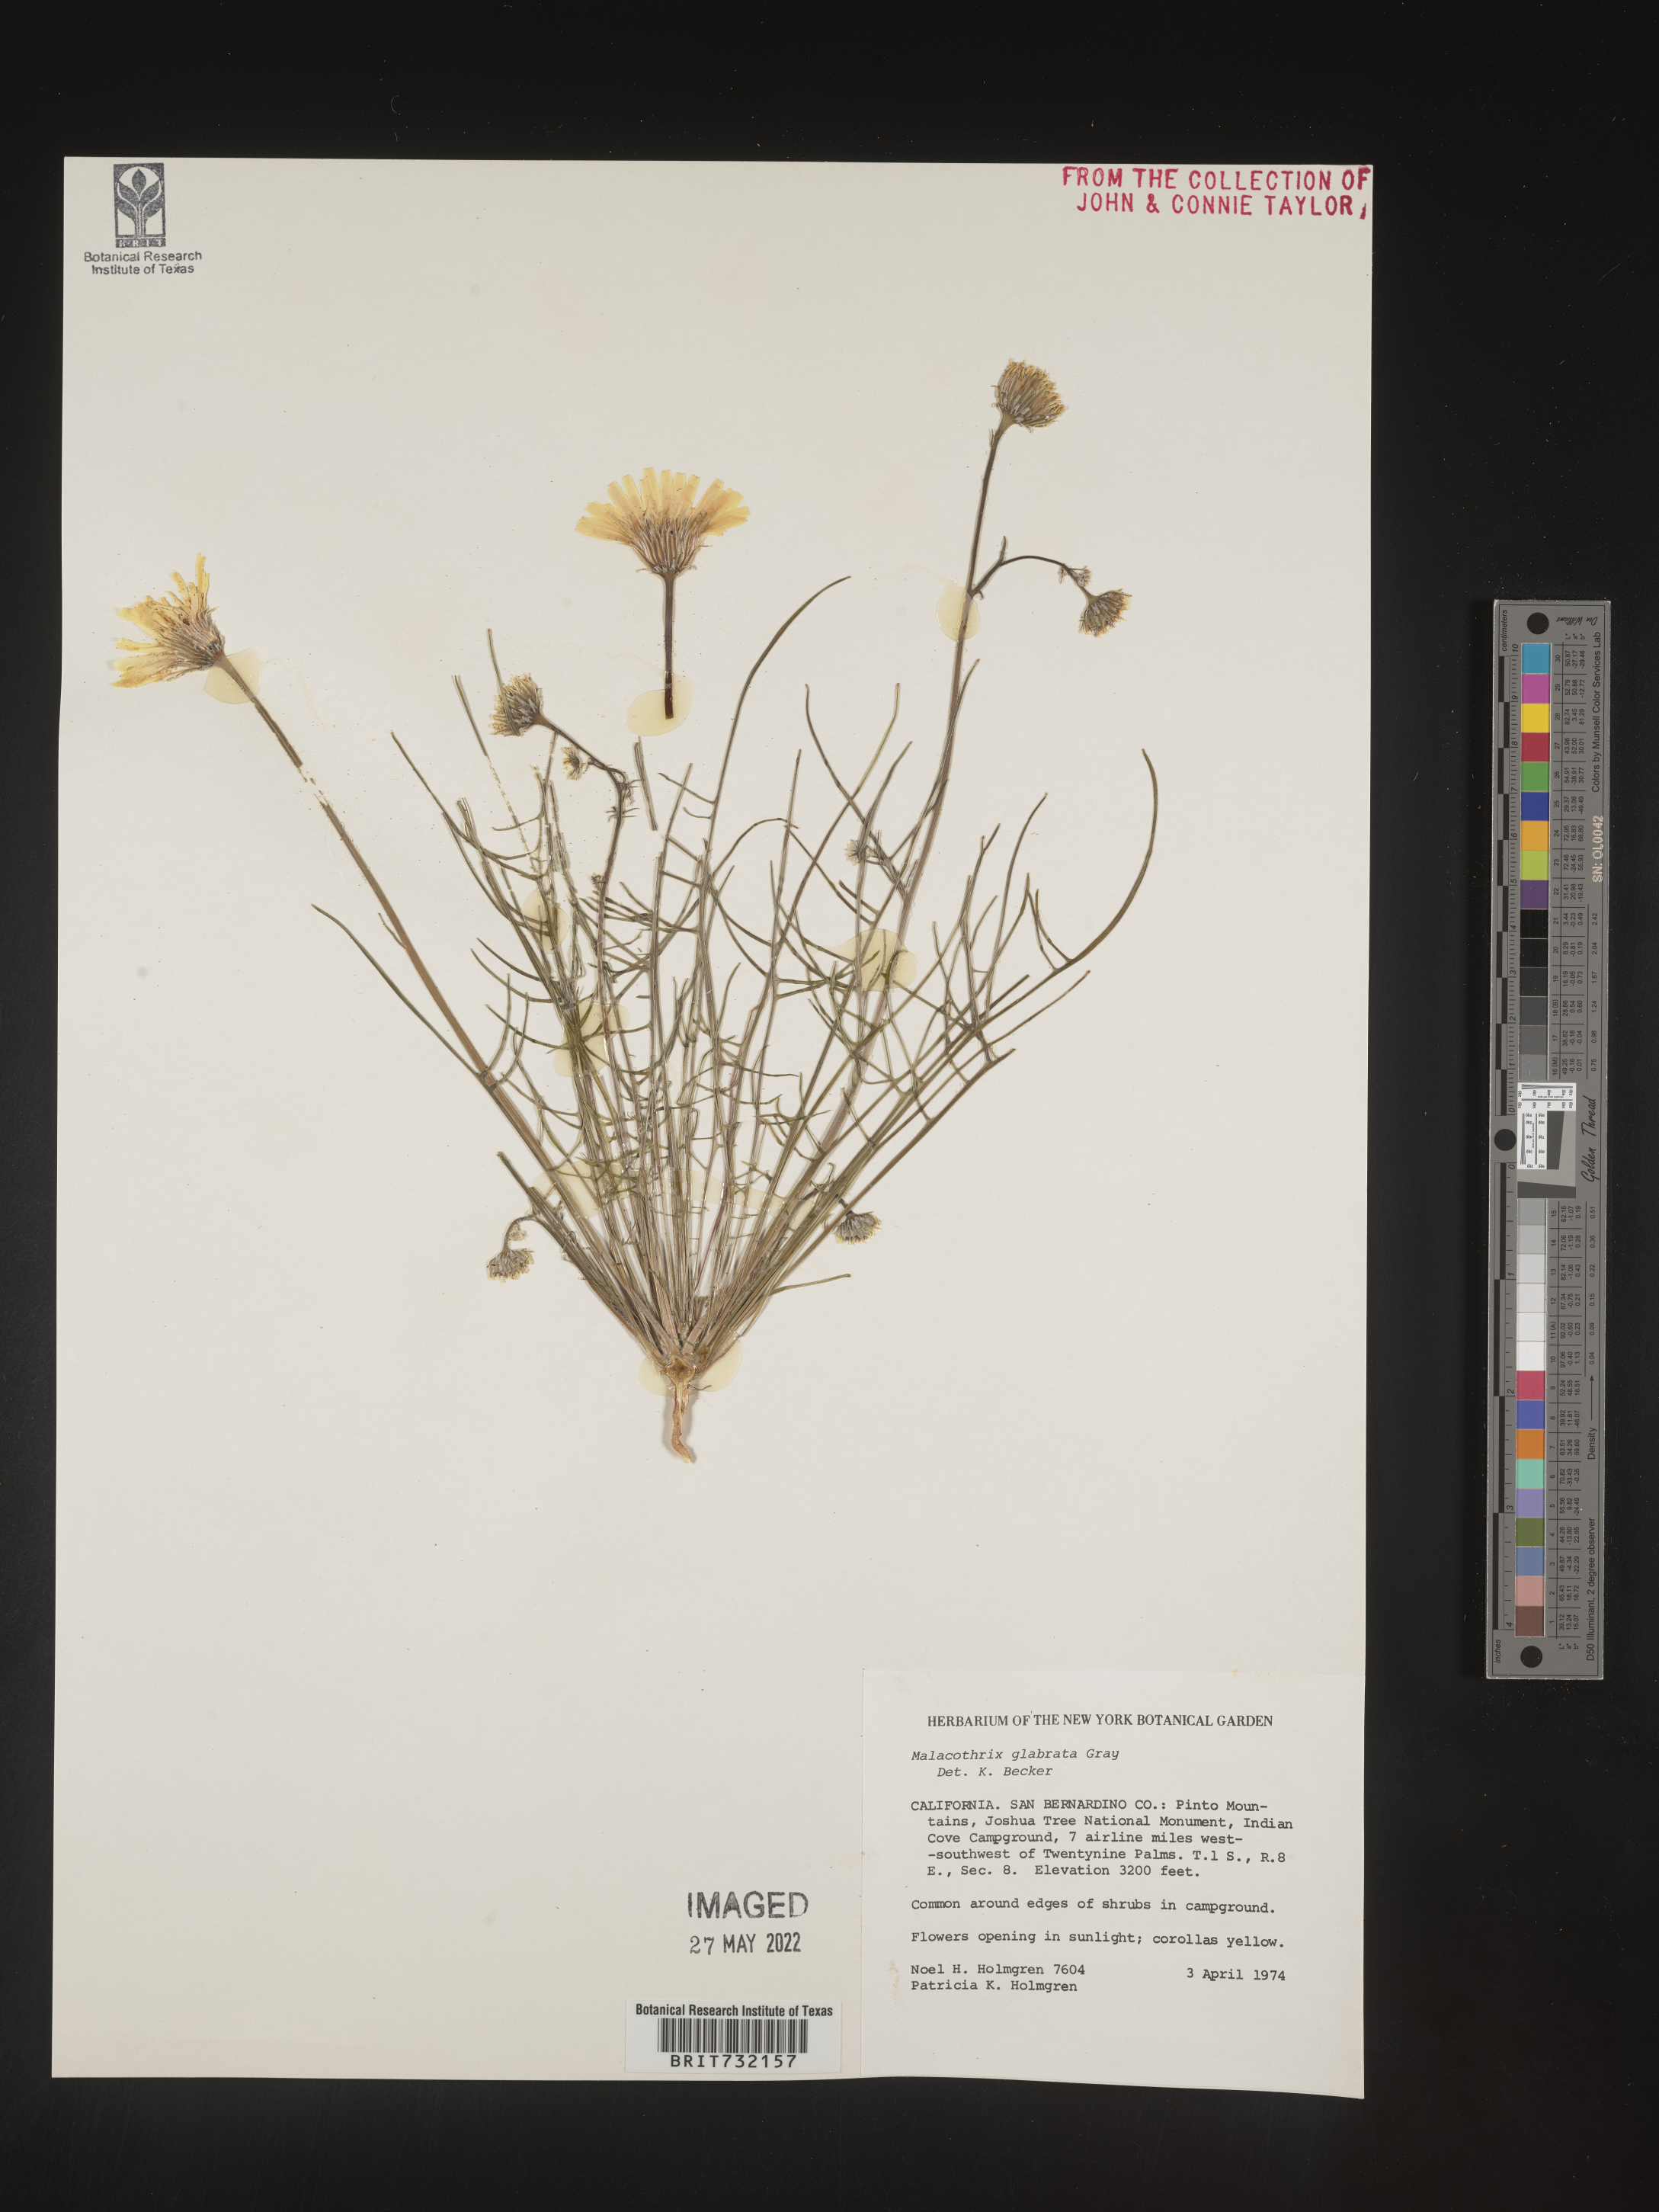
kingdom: Plantae
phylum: Tracheophyta
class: Magnoliopsida
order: Asterales
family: Asteraceae
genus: Malacothrix
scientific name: Malacothrix glabrata
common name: Smooth desert-dandelion
